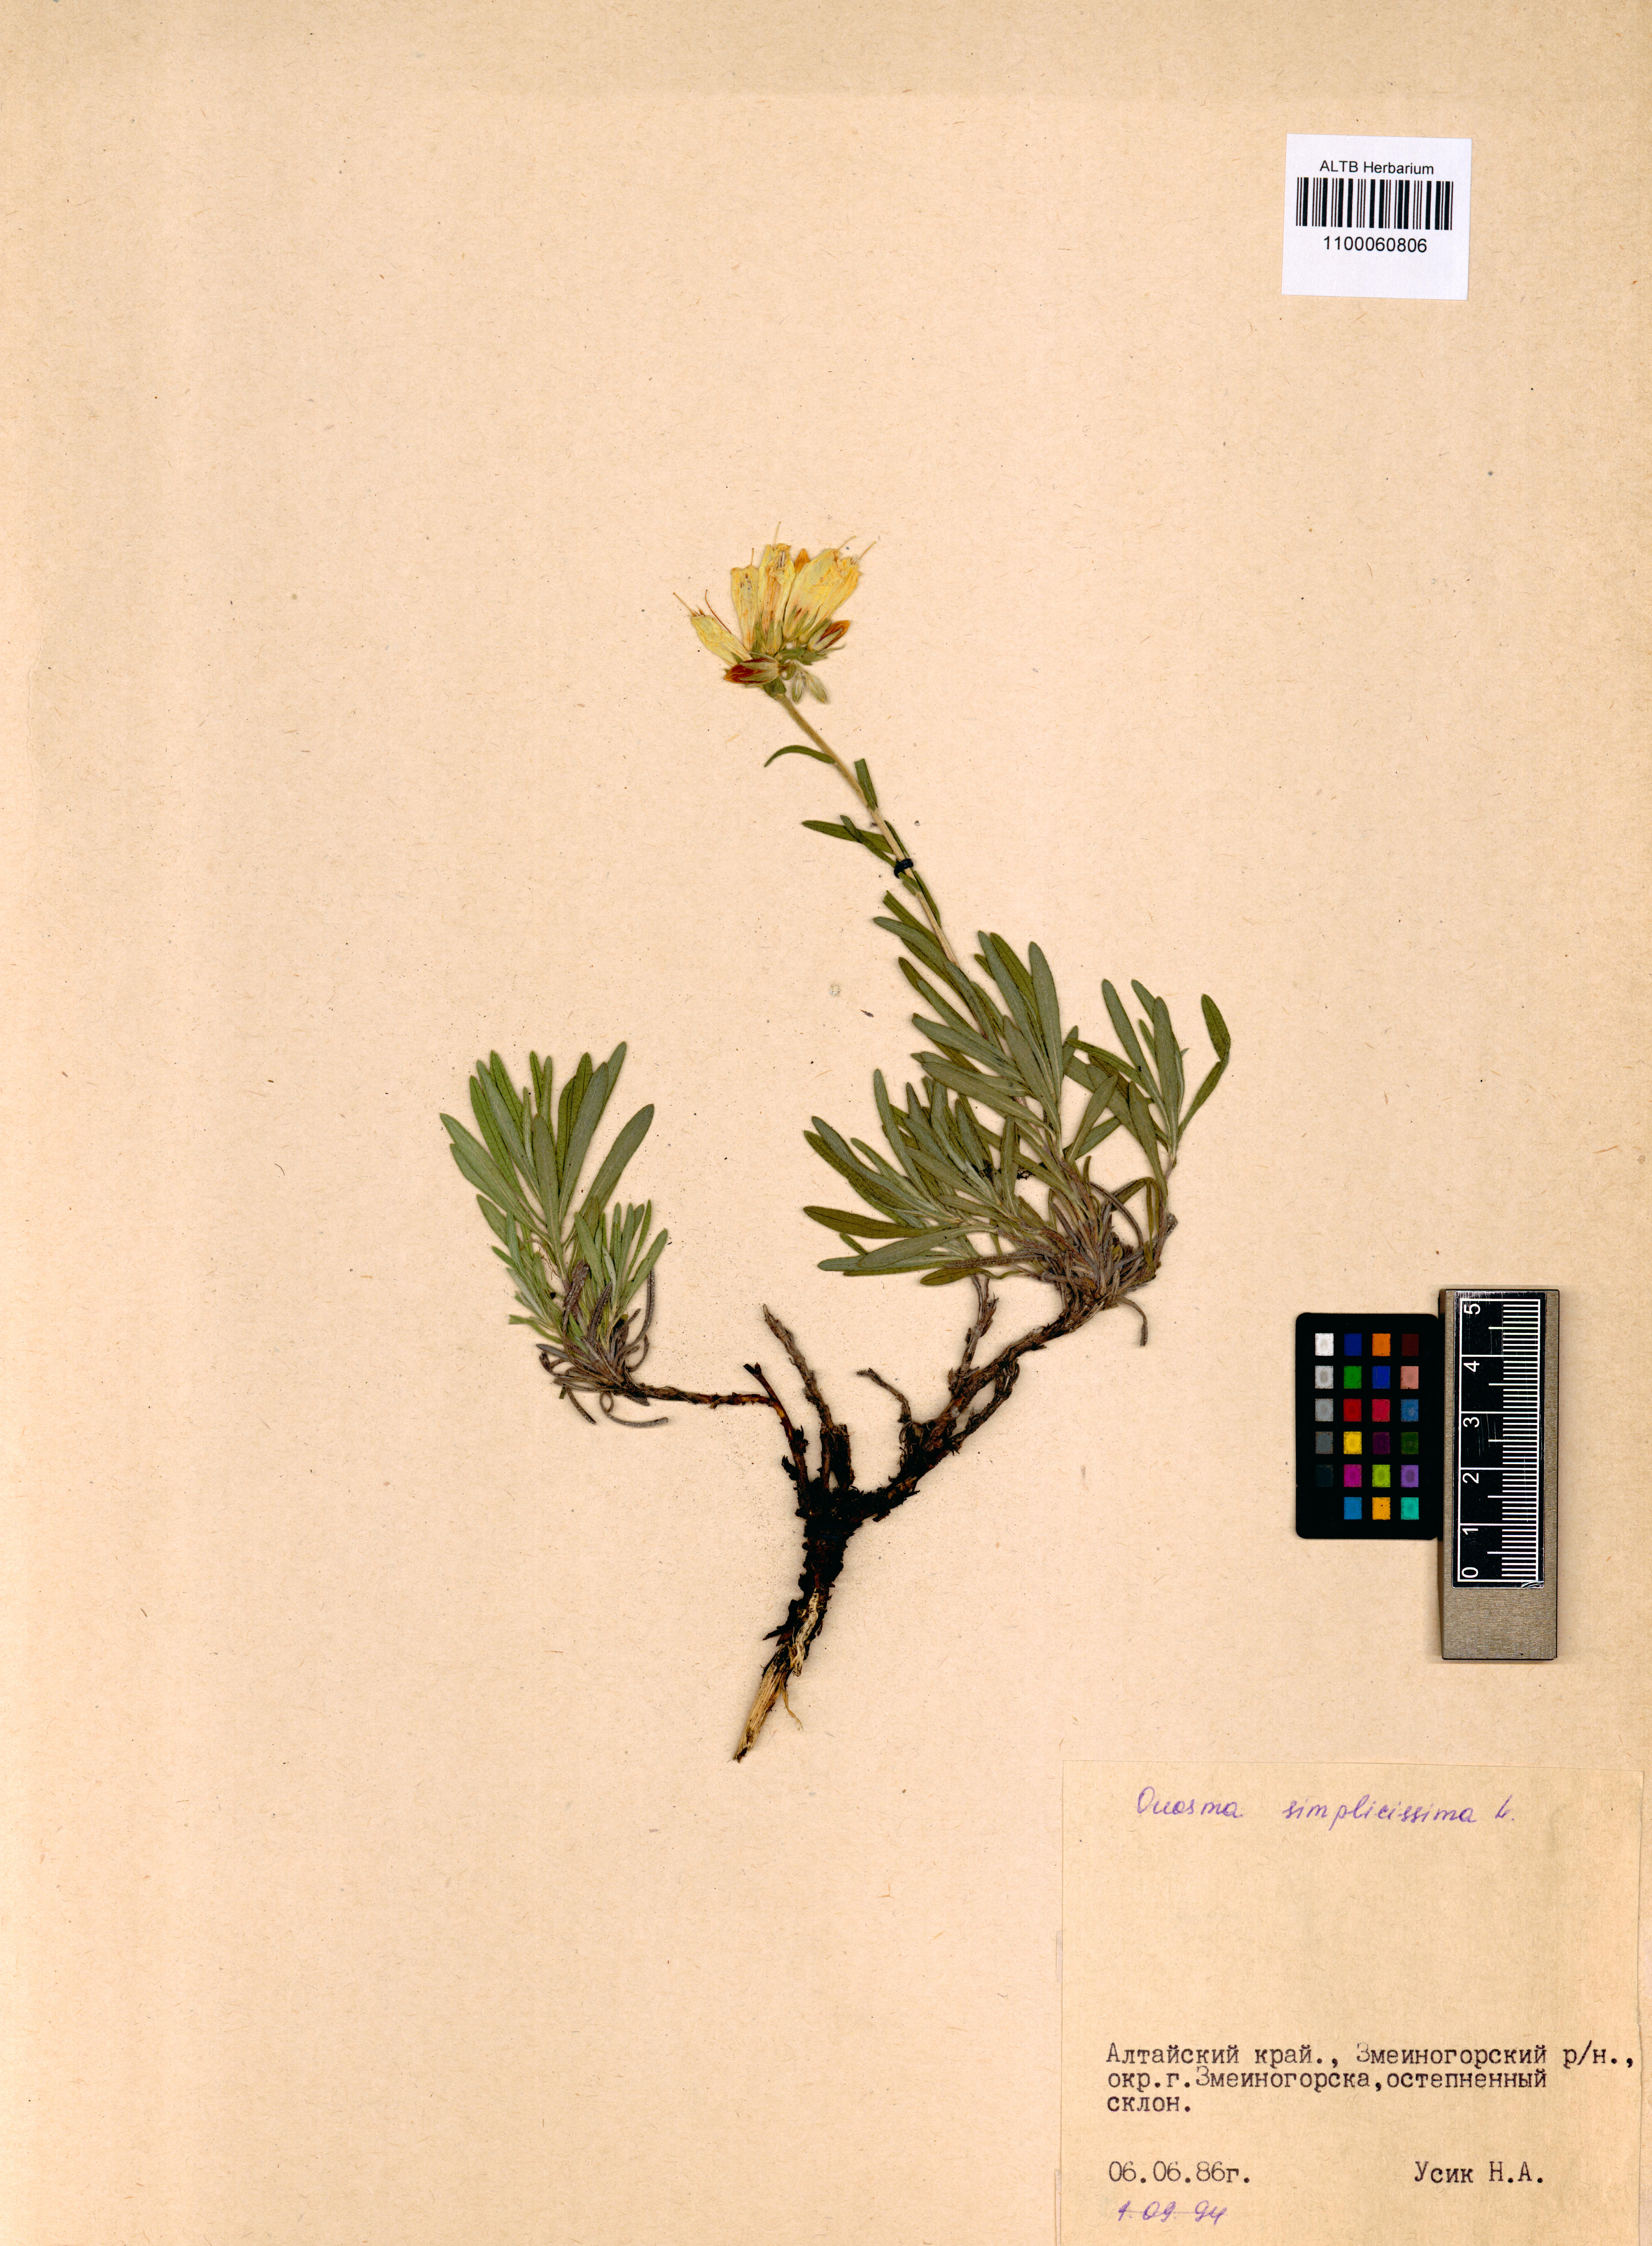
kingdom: Plantae
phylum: Tracheophyta
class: Magnoliopsida
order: Boraginales
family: Boraginaceae
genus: Onosma
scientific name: Onosma simplicissima
